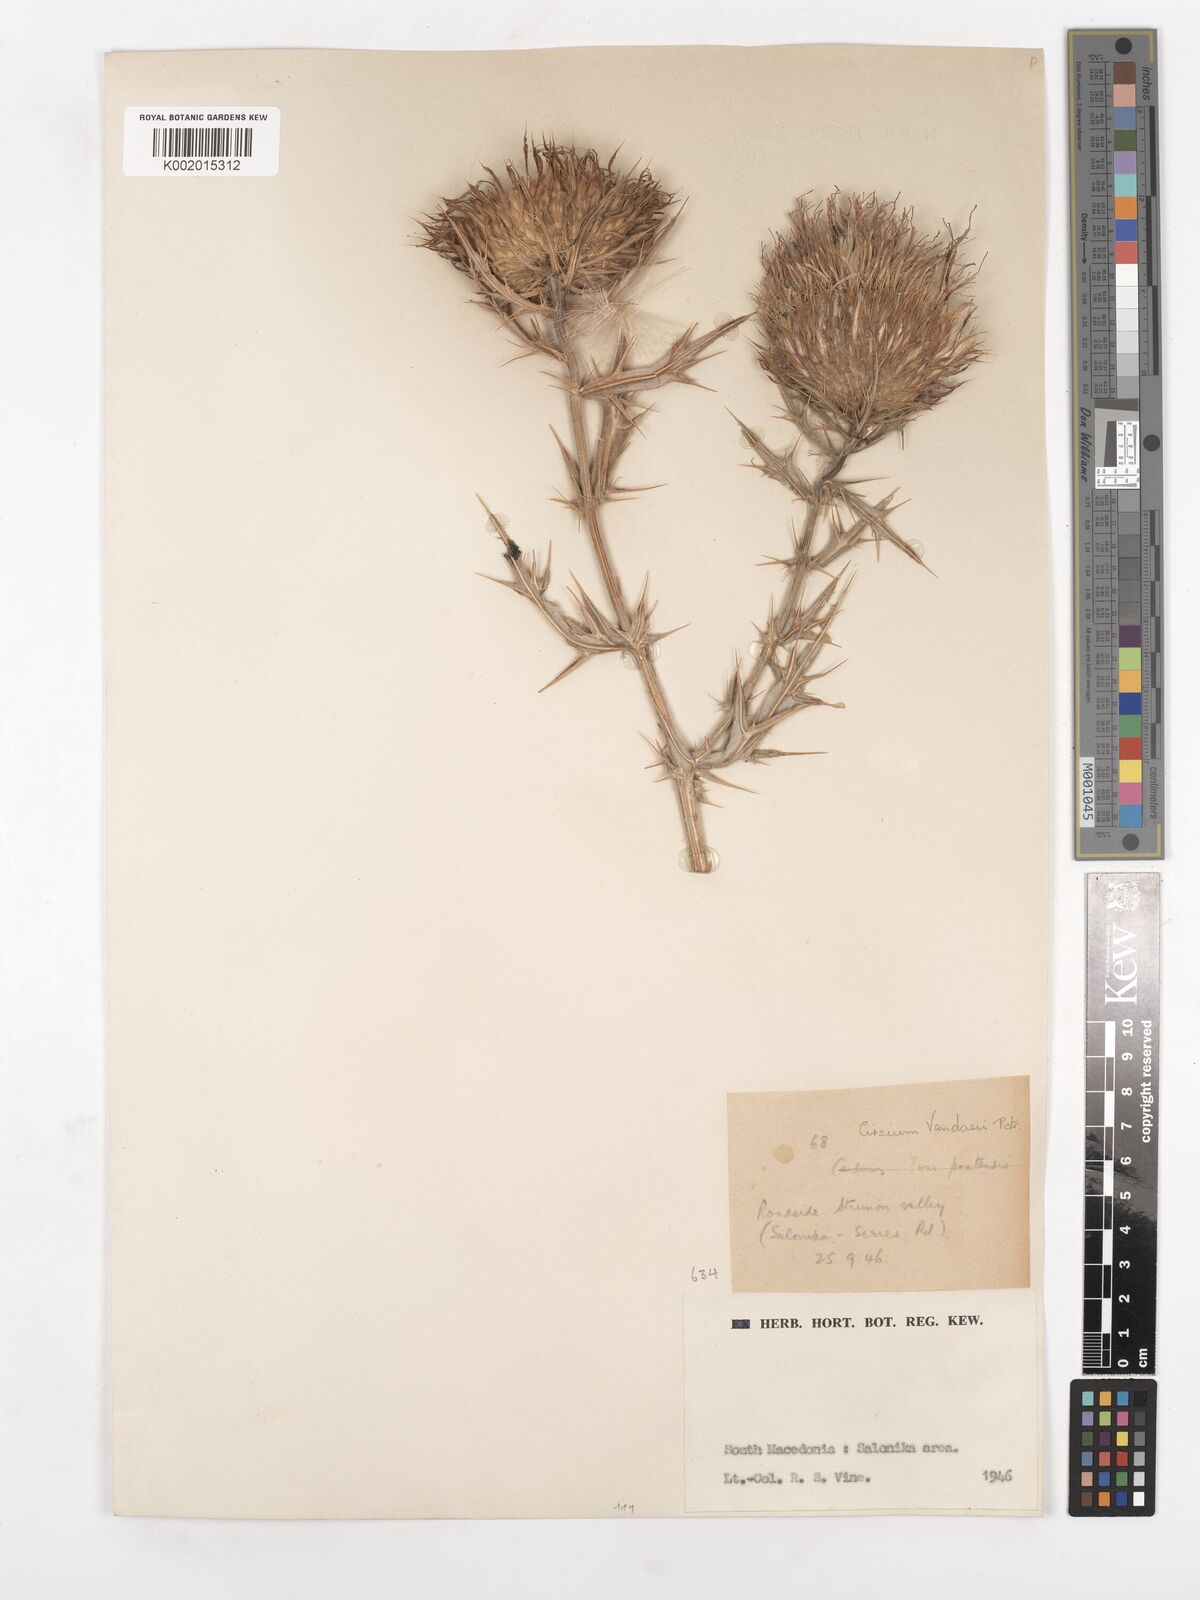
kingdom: Plantae
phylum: Tracheophyta
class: Magnoliopsida
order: Asterales
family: Asteraceae
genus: Lophiolepis
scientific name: Lophiolepis eriophora
